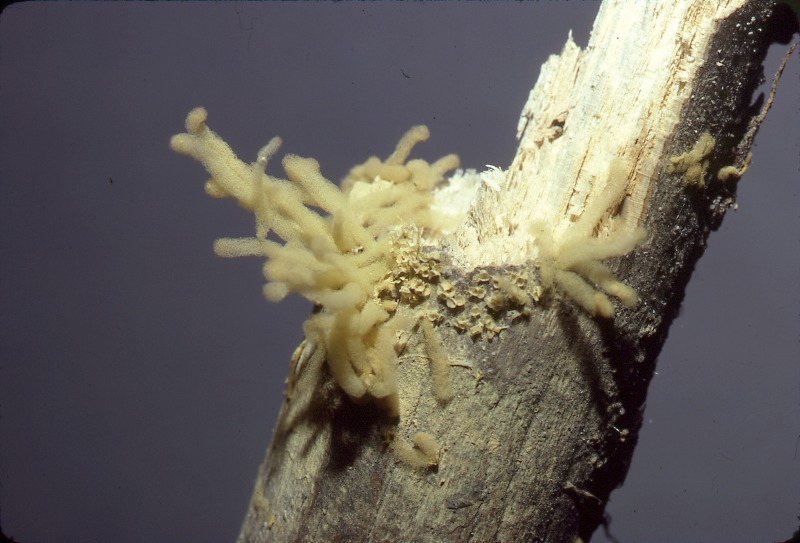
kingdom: Protozoa
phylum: Mycetozoa
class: Myxomycetes
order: Trichiales
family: Arcyriaceae
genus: Arcyria
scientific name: Arcyria obvelata
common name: Yellow carnival candy slime
